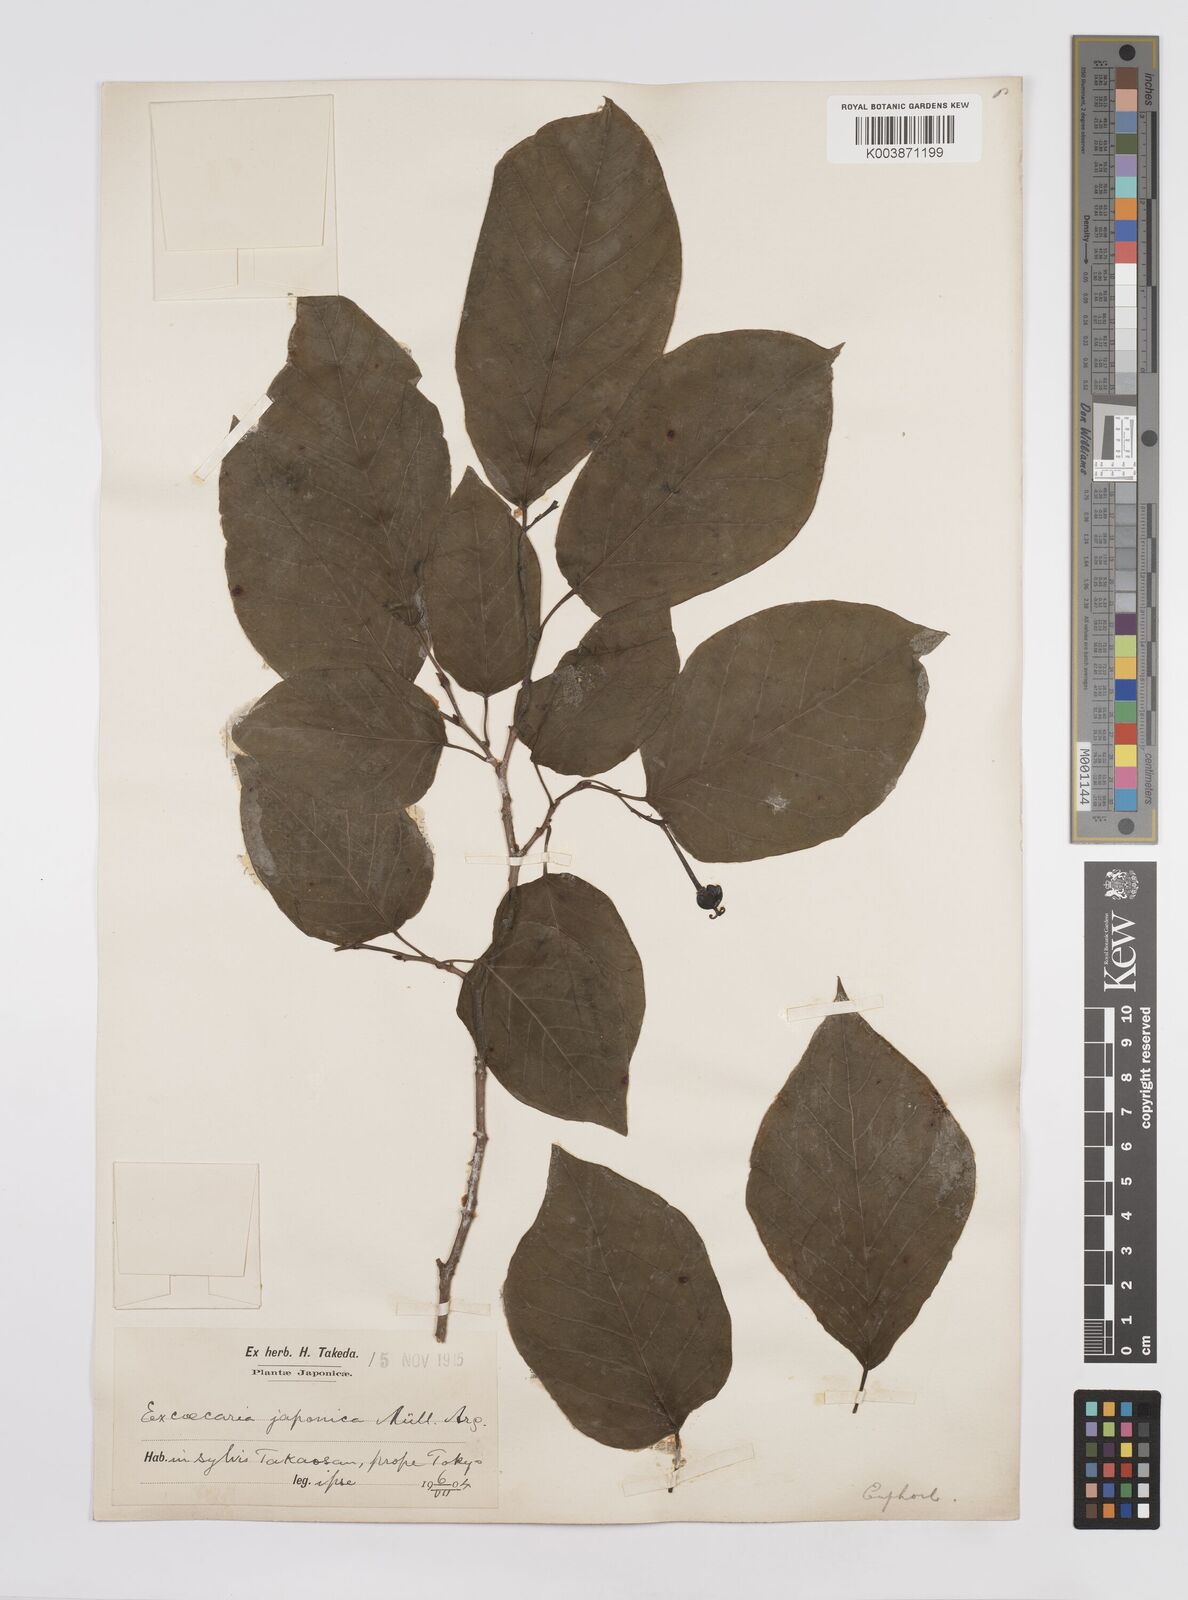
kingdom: Plantae
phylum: Tracheophyta
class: Magnoliopsida
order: Malpighiales
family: Euphorbiaceae
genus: Neoshirakia
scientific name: Neoshirakia japonica
